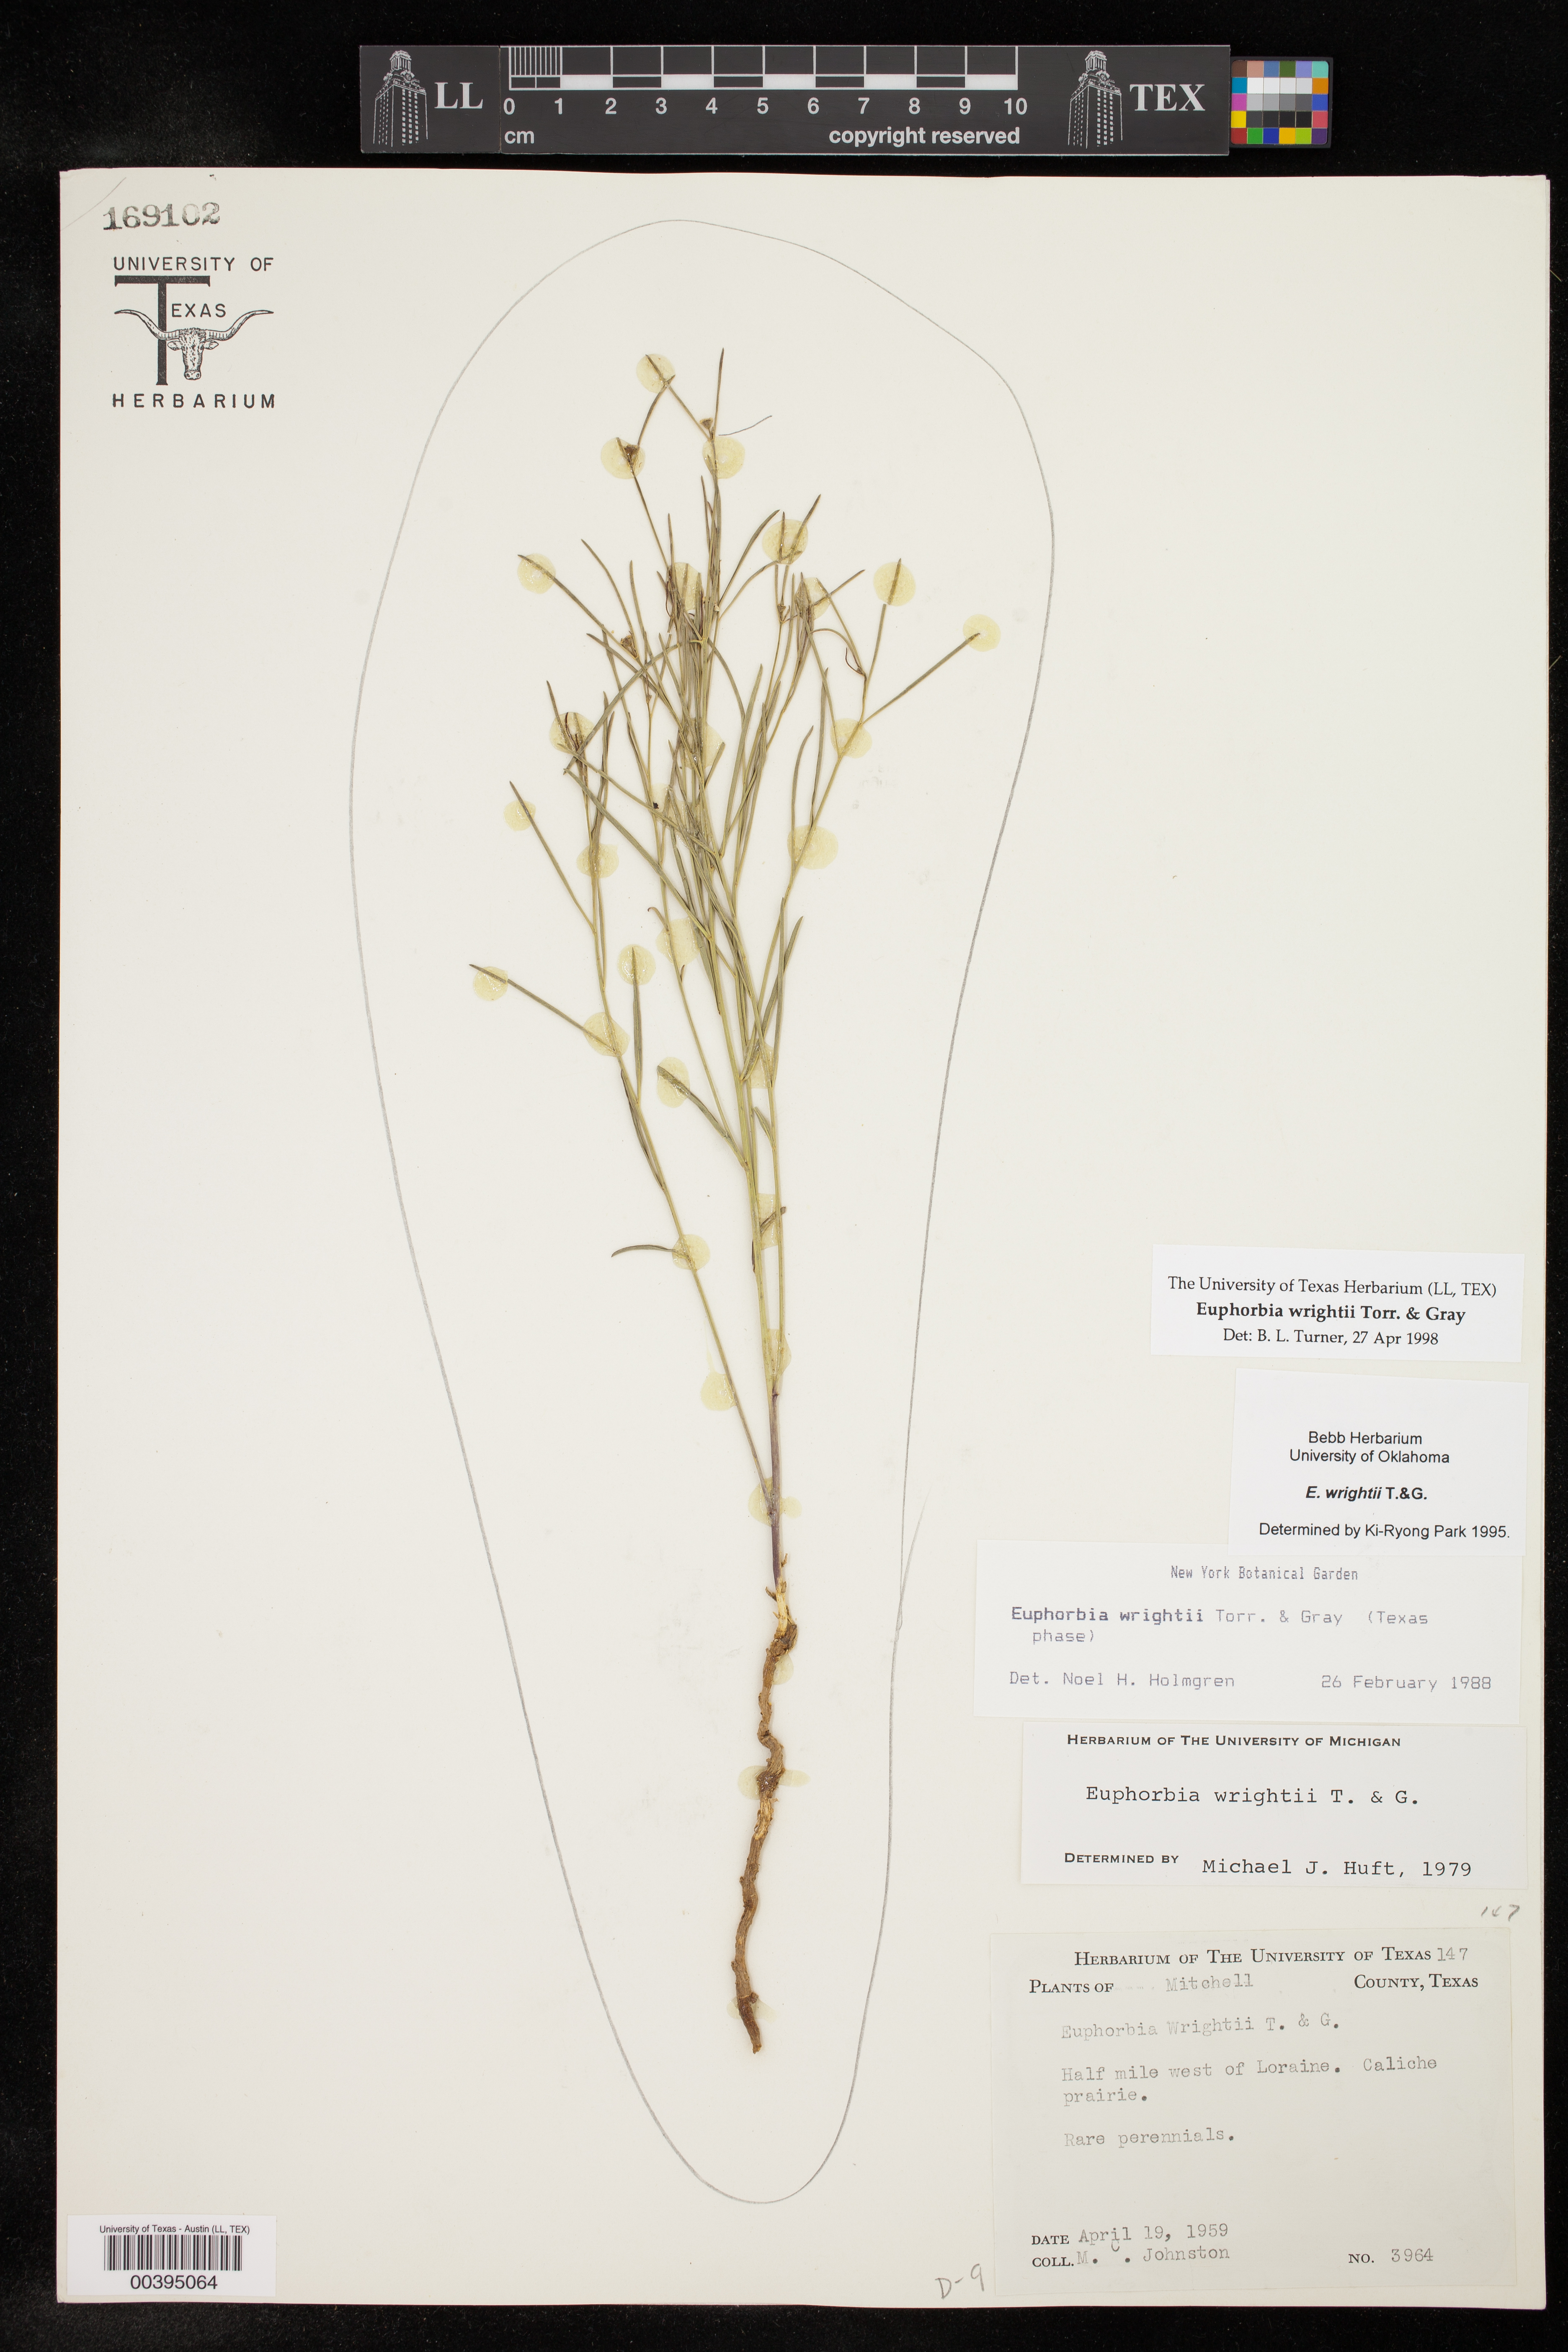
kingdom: Plantae
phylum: Tracheophyta
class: Magnoliopsida
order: Malpighiales
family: Euphorbiaceae
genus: Euphorbia
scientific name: Euphorbia wrightii
